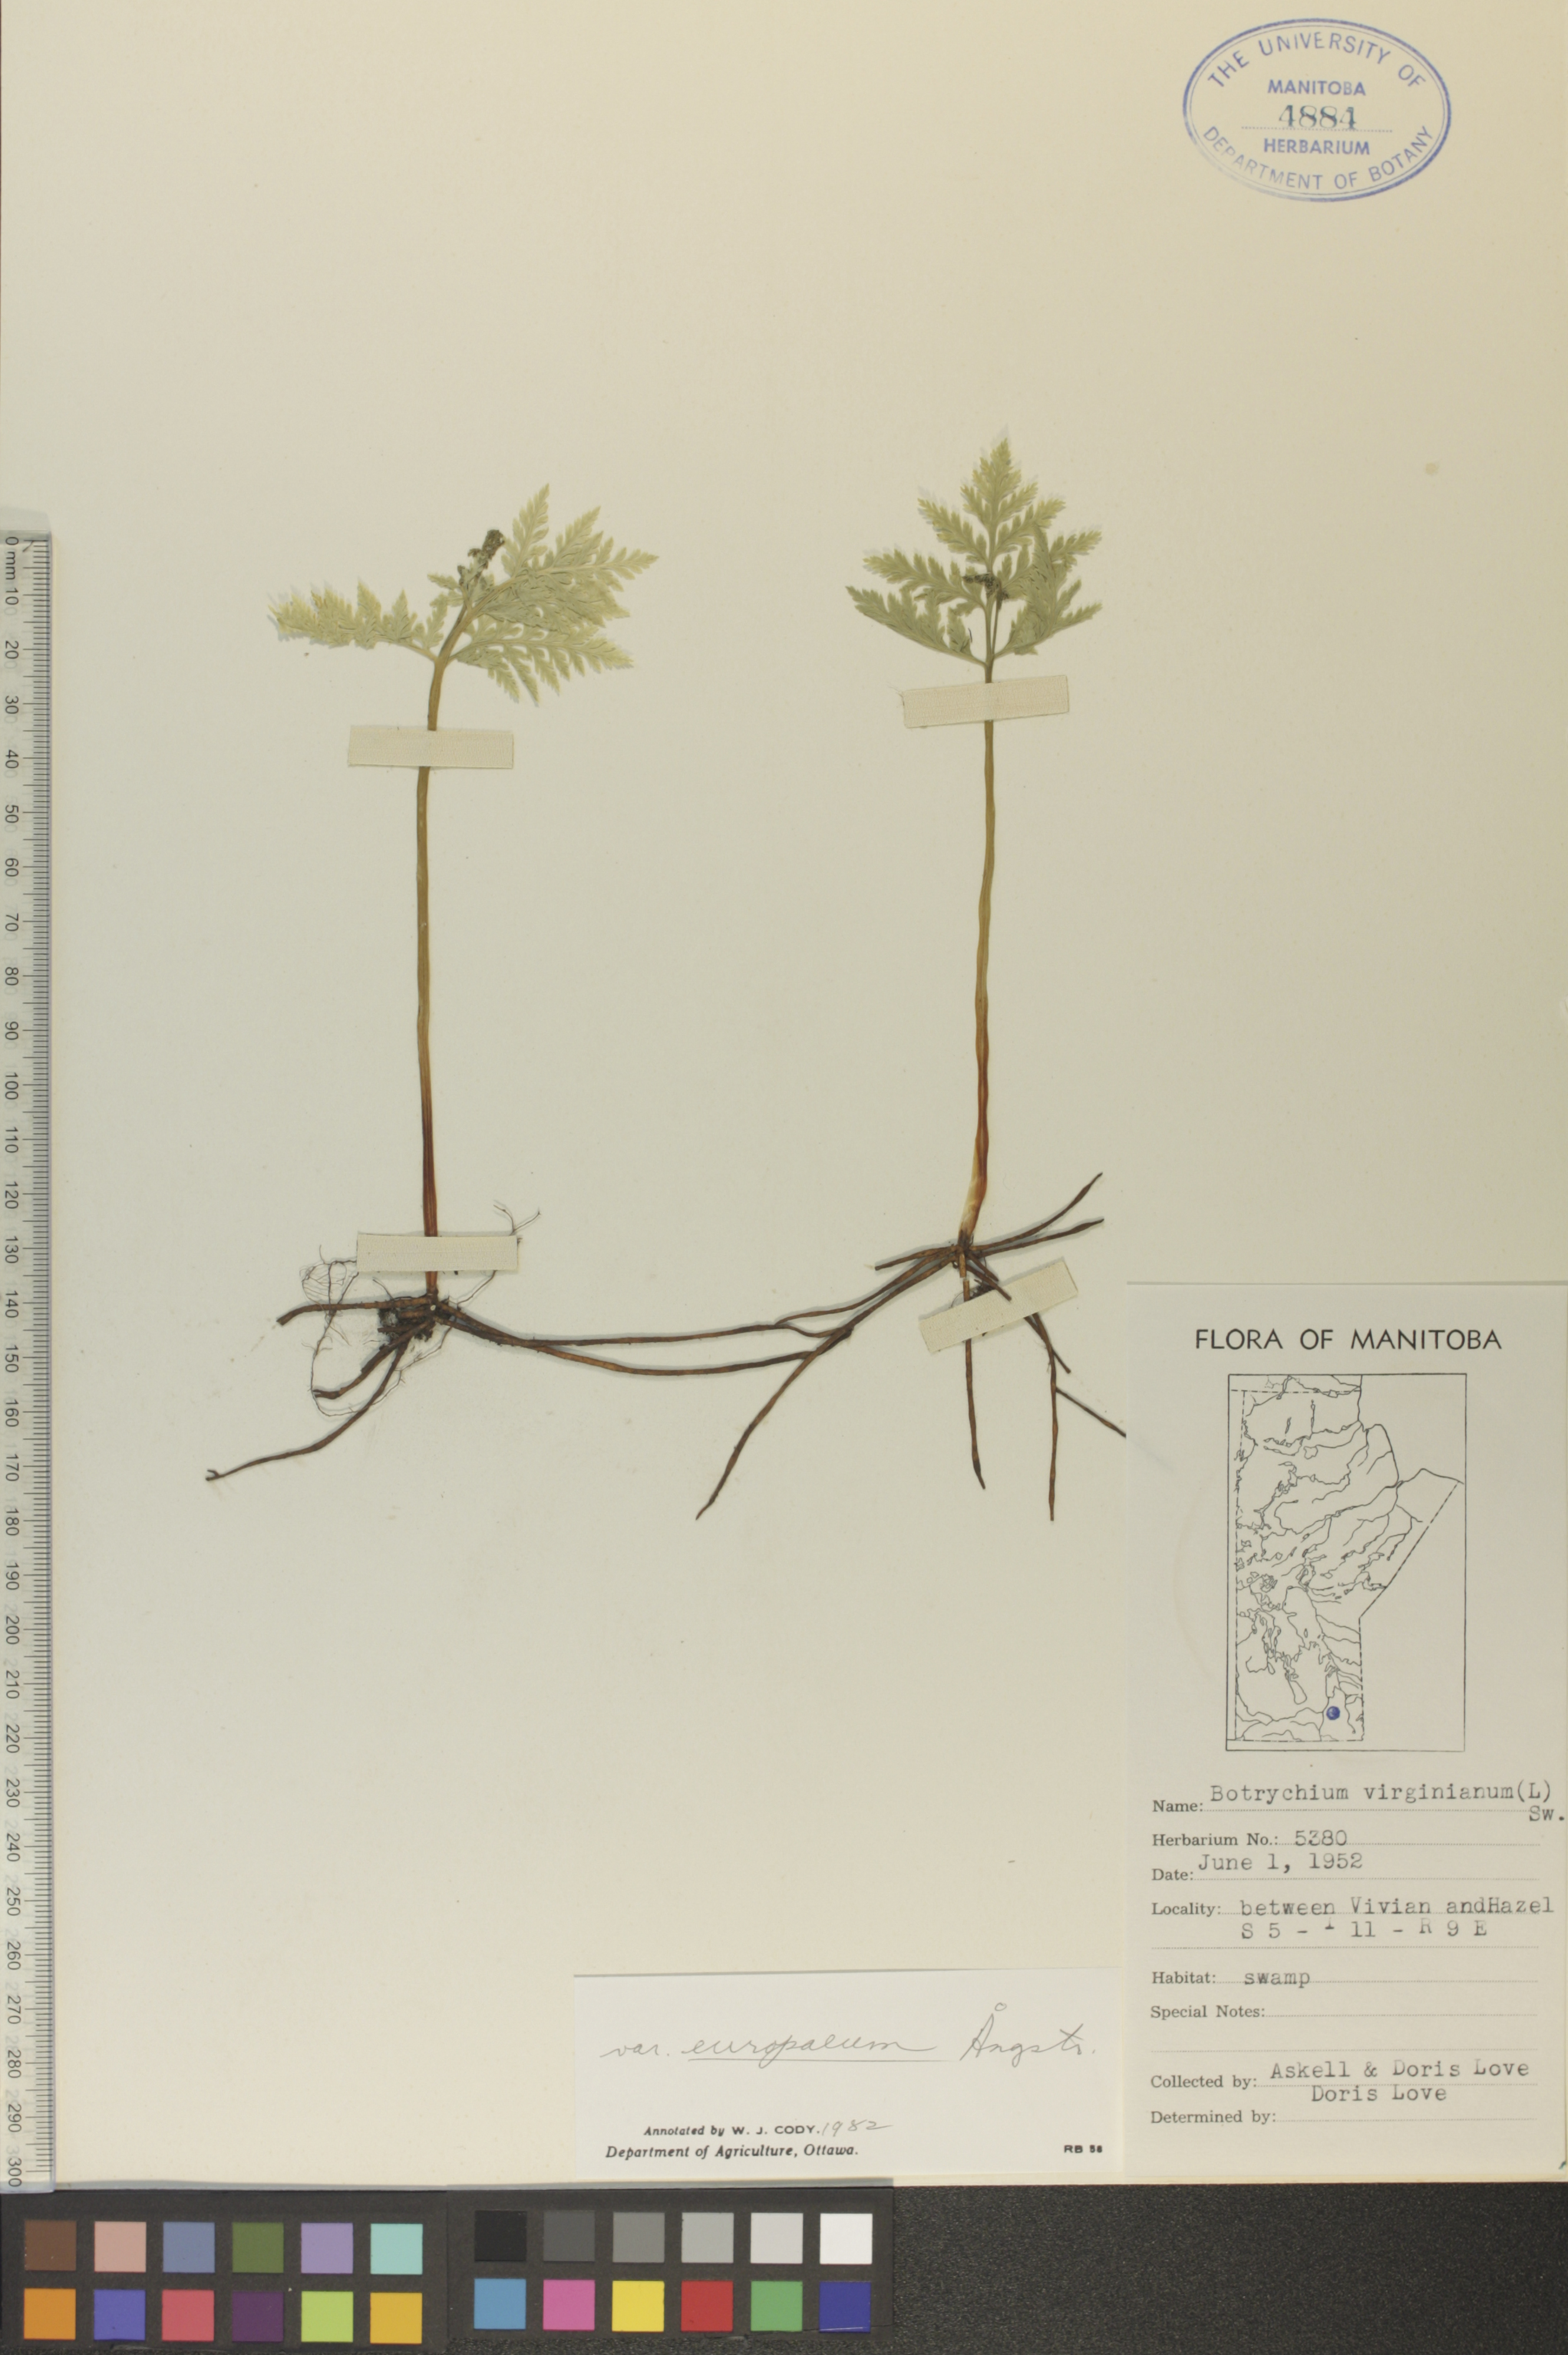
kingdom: Plantae
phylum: Tracheophyta
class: Polypodiopsida
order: Ophioglossales
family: Ophioglossaceae
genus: Botrypus
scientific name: Botrypus virginianus
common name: Common grapefern
